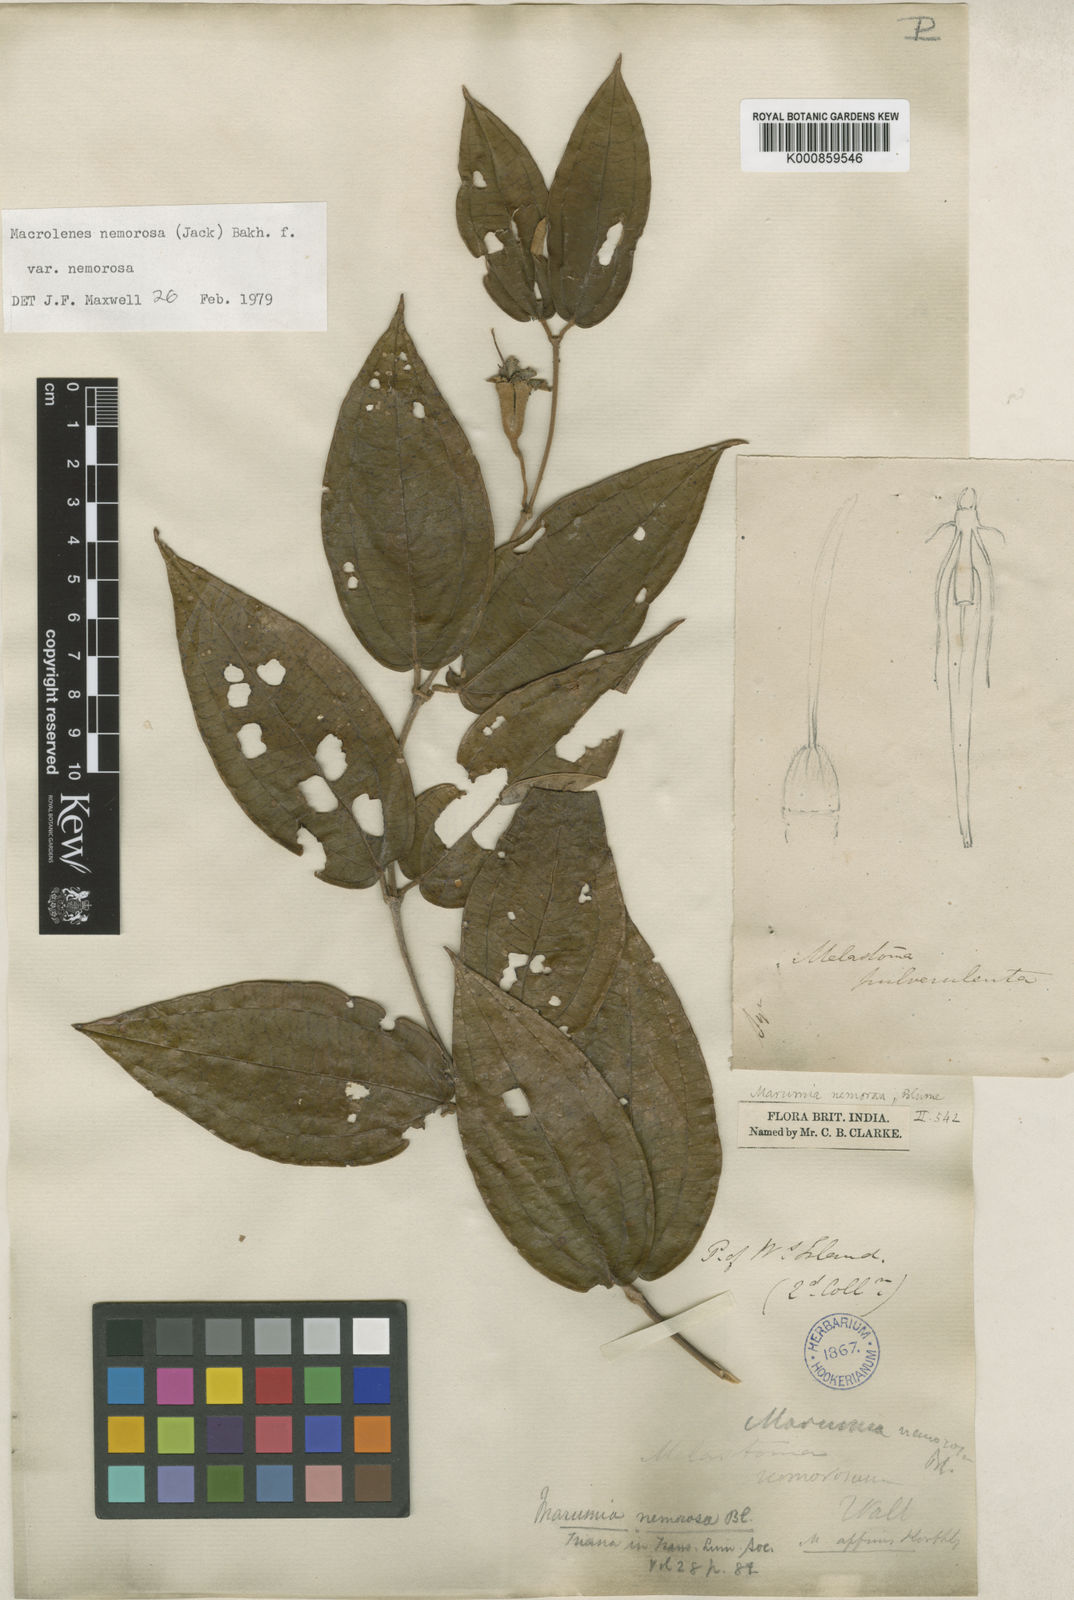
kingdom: Plantae
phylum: Tracheophyta
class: Magnoliopsida
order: Myrtales
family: Melastomataceae
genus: Macrolenes
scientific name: Macrolenes nemorosa
